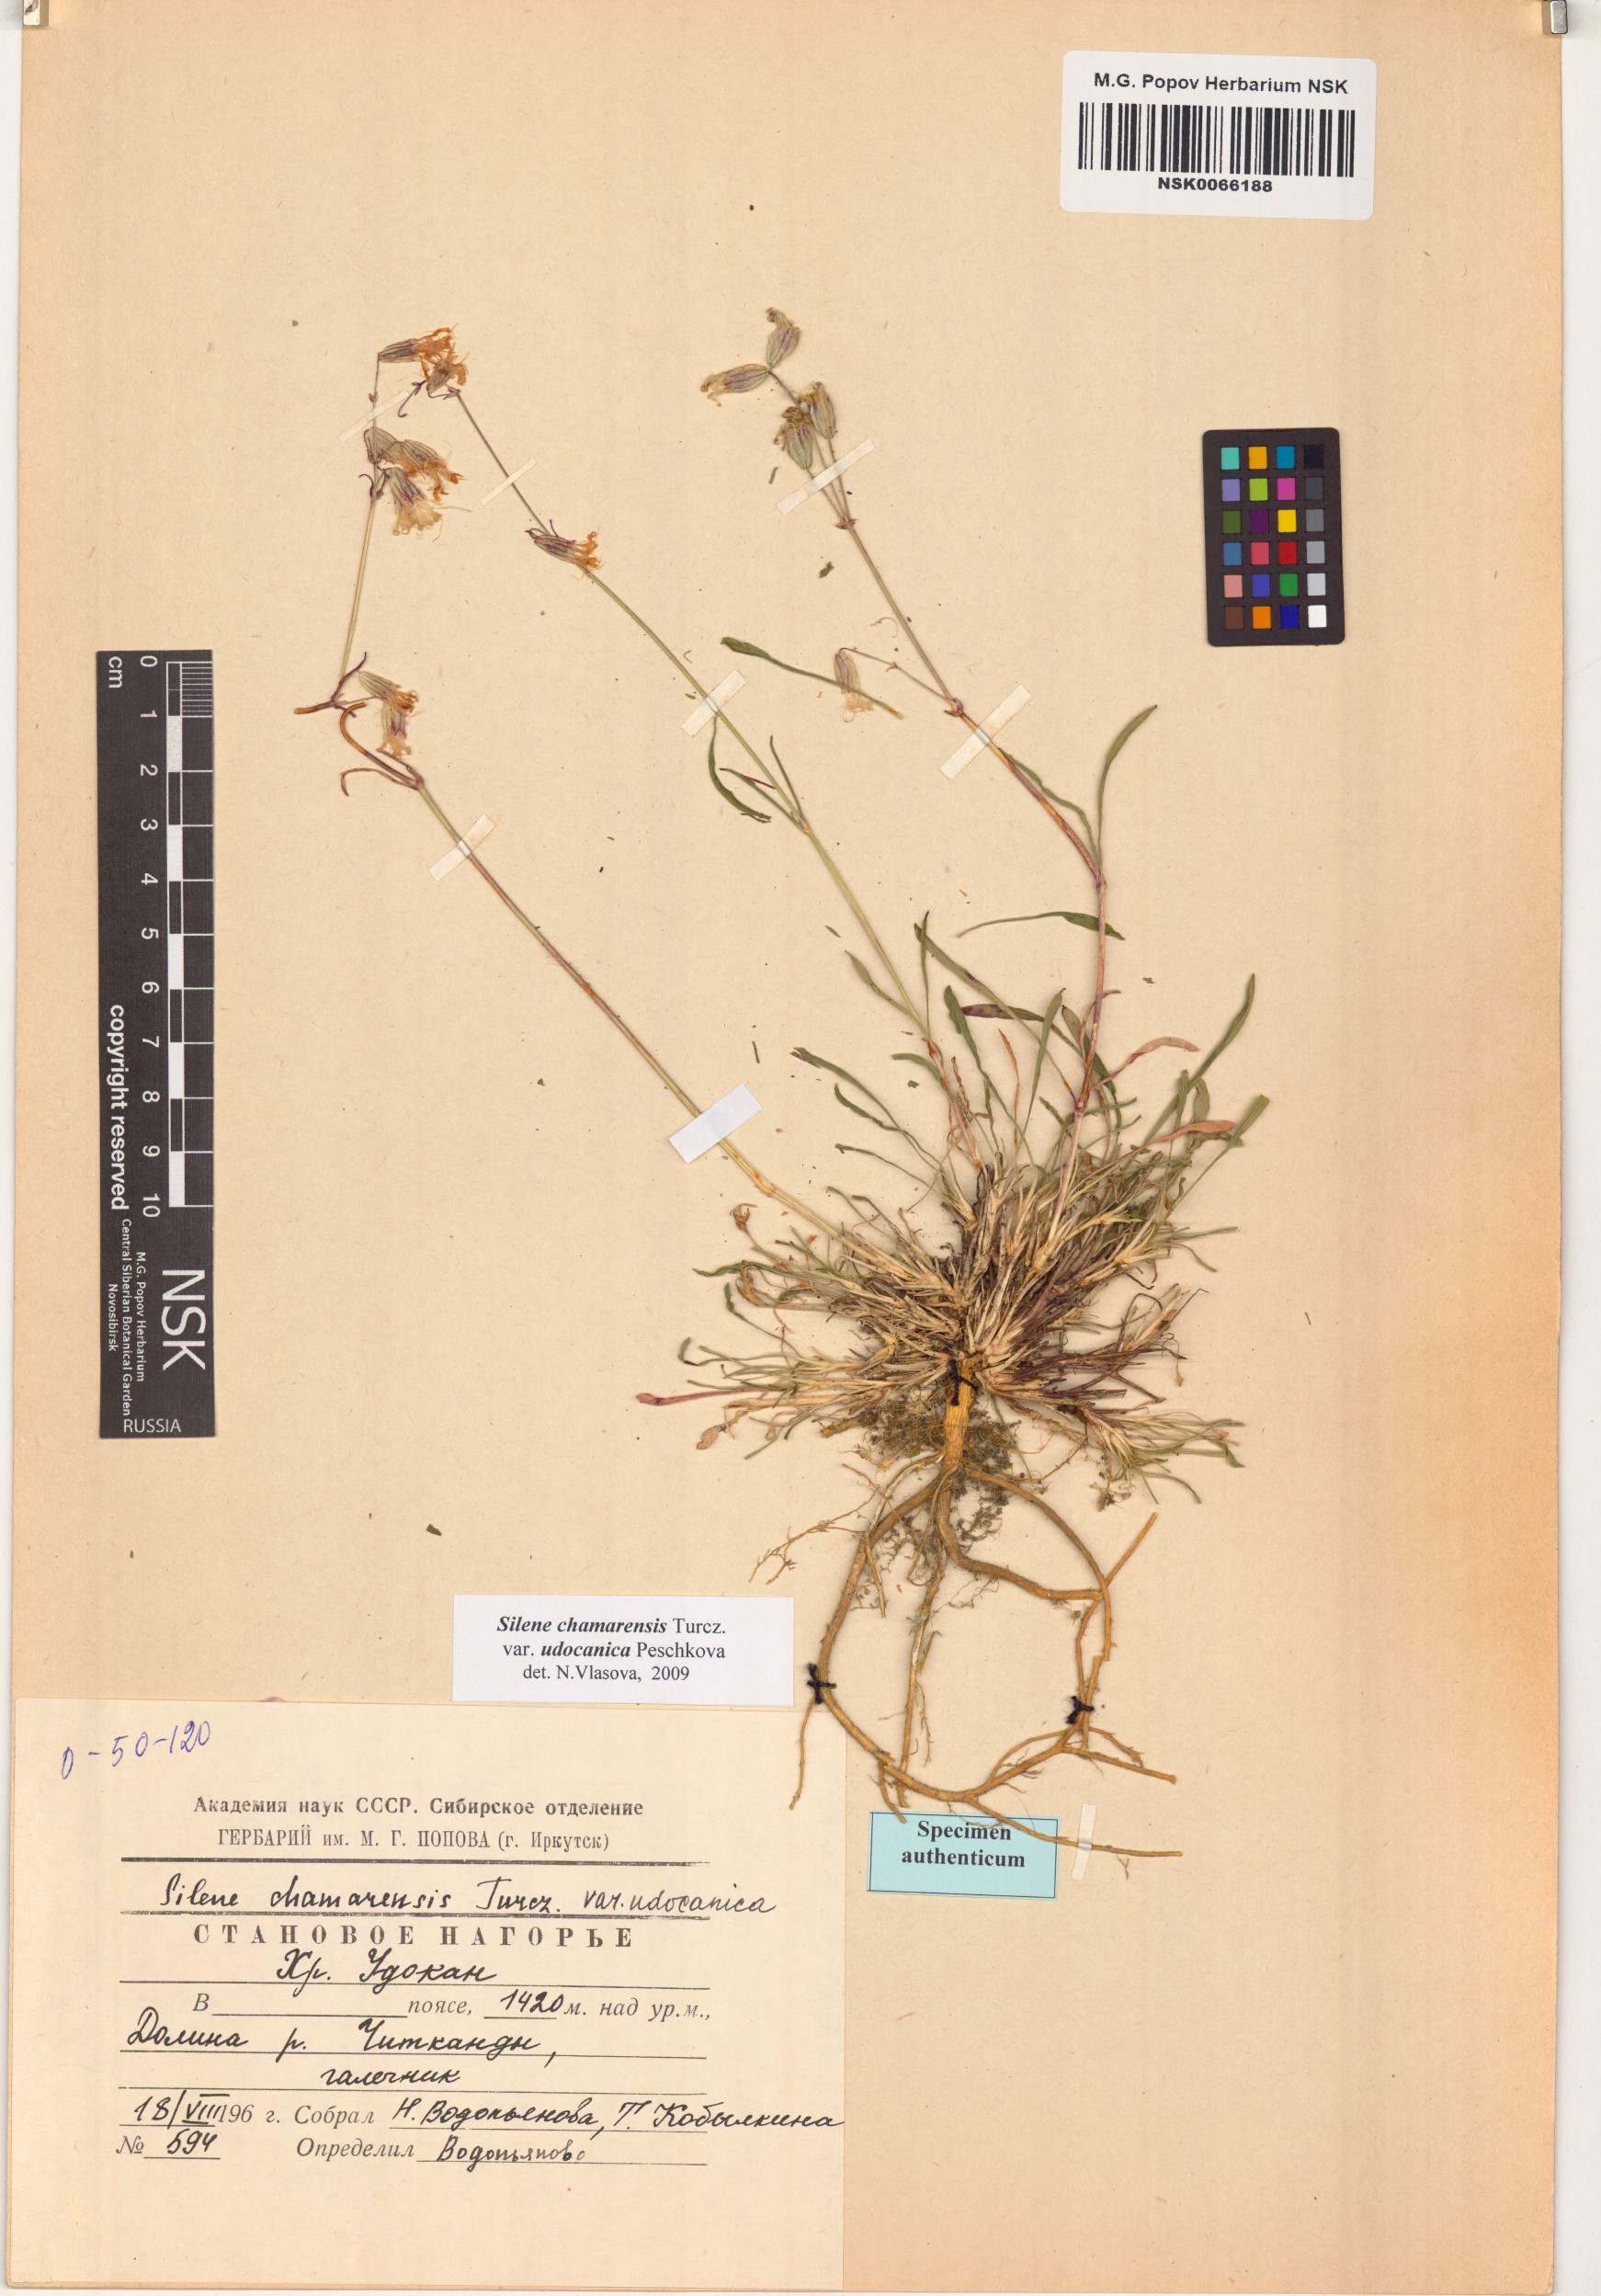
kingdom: Plantae
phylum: Tracheophyta
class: Magnoliopsida
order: Caryophyllales
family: Caryophyllaceae
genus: Silene
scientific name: Silene chamarensis
